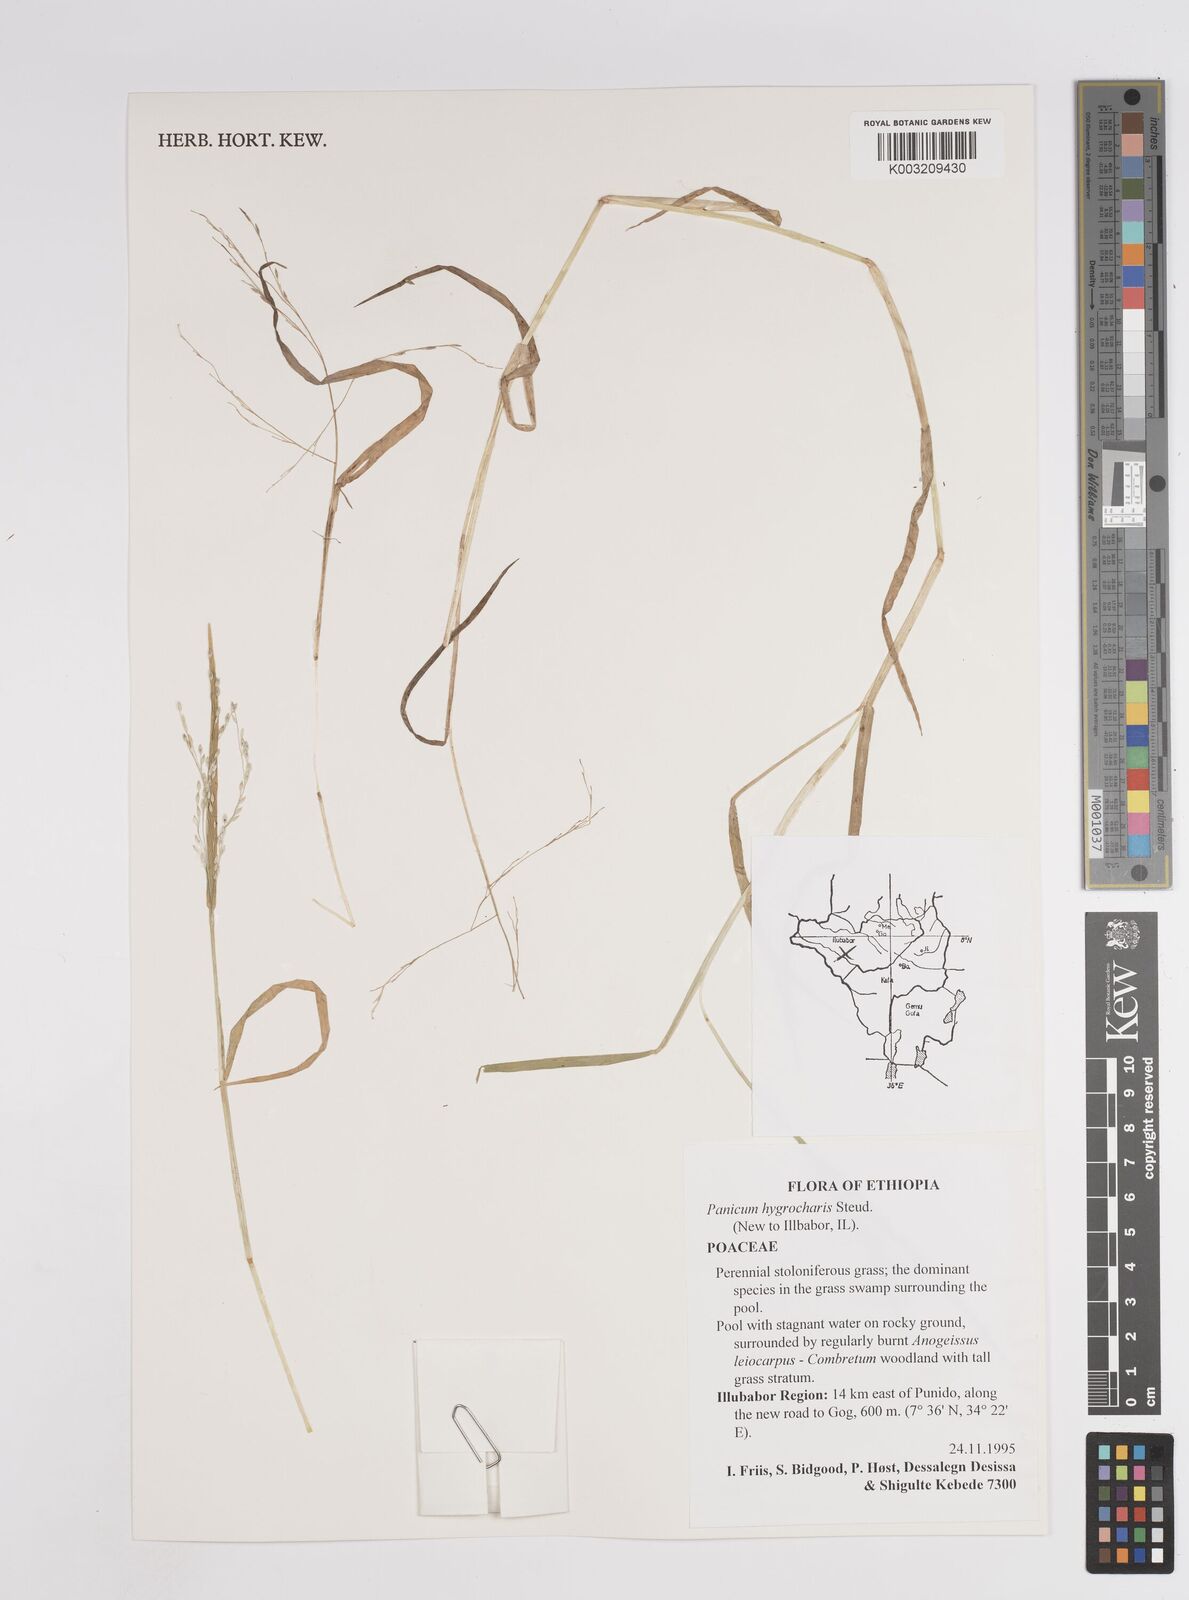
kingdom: Plantae
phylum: Tracheophyta
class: Liliopsida
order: Poales
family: Poaceae
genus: Panicum
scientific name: Panicum repens
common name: Torpedo grass
